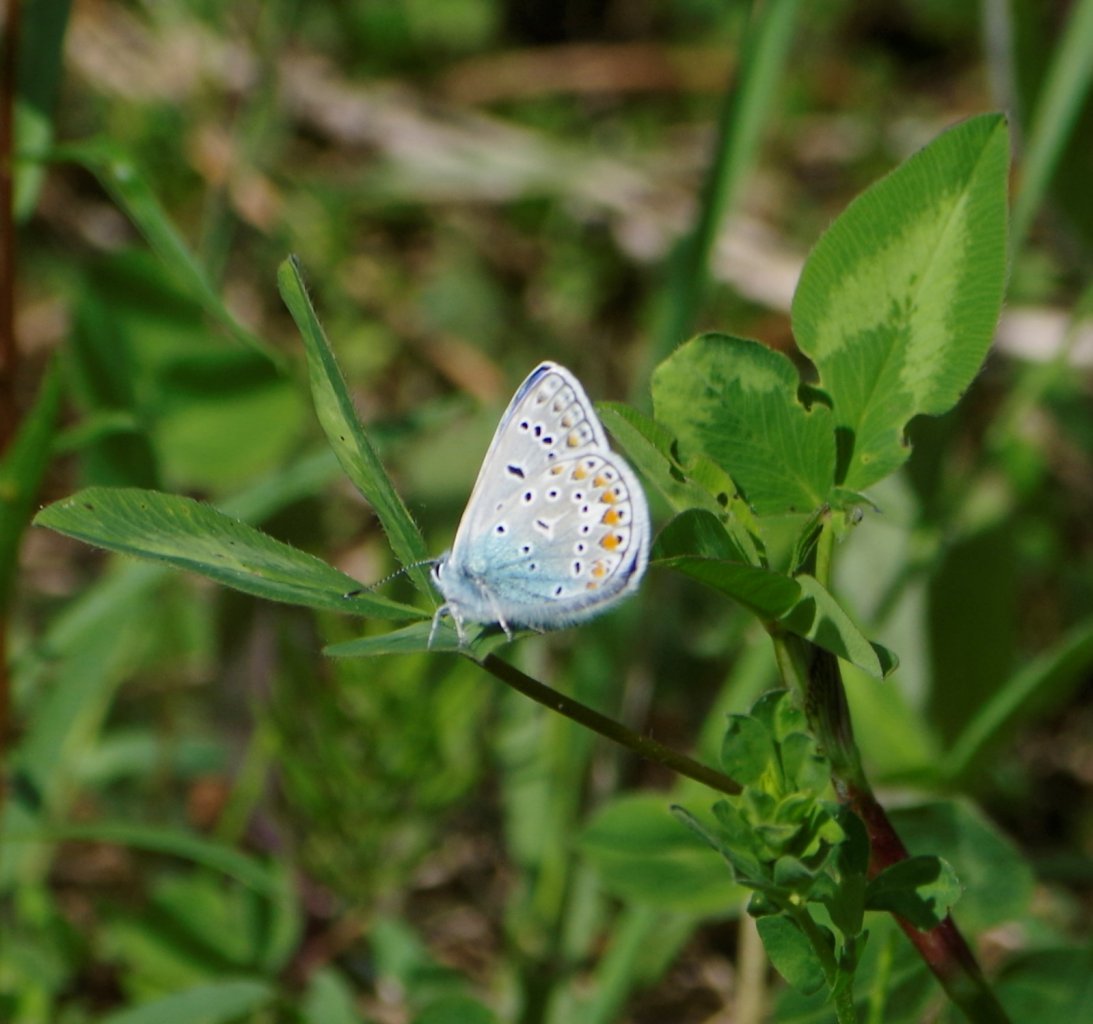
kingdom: Animalia
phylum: Arthropoda
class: Insecta
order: Lepidoptera
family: Lycaenidae
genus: Polyommatus
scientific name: Polyommatus icarus
